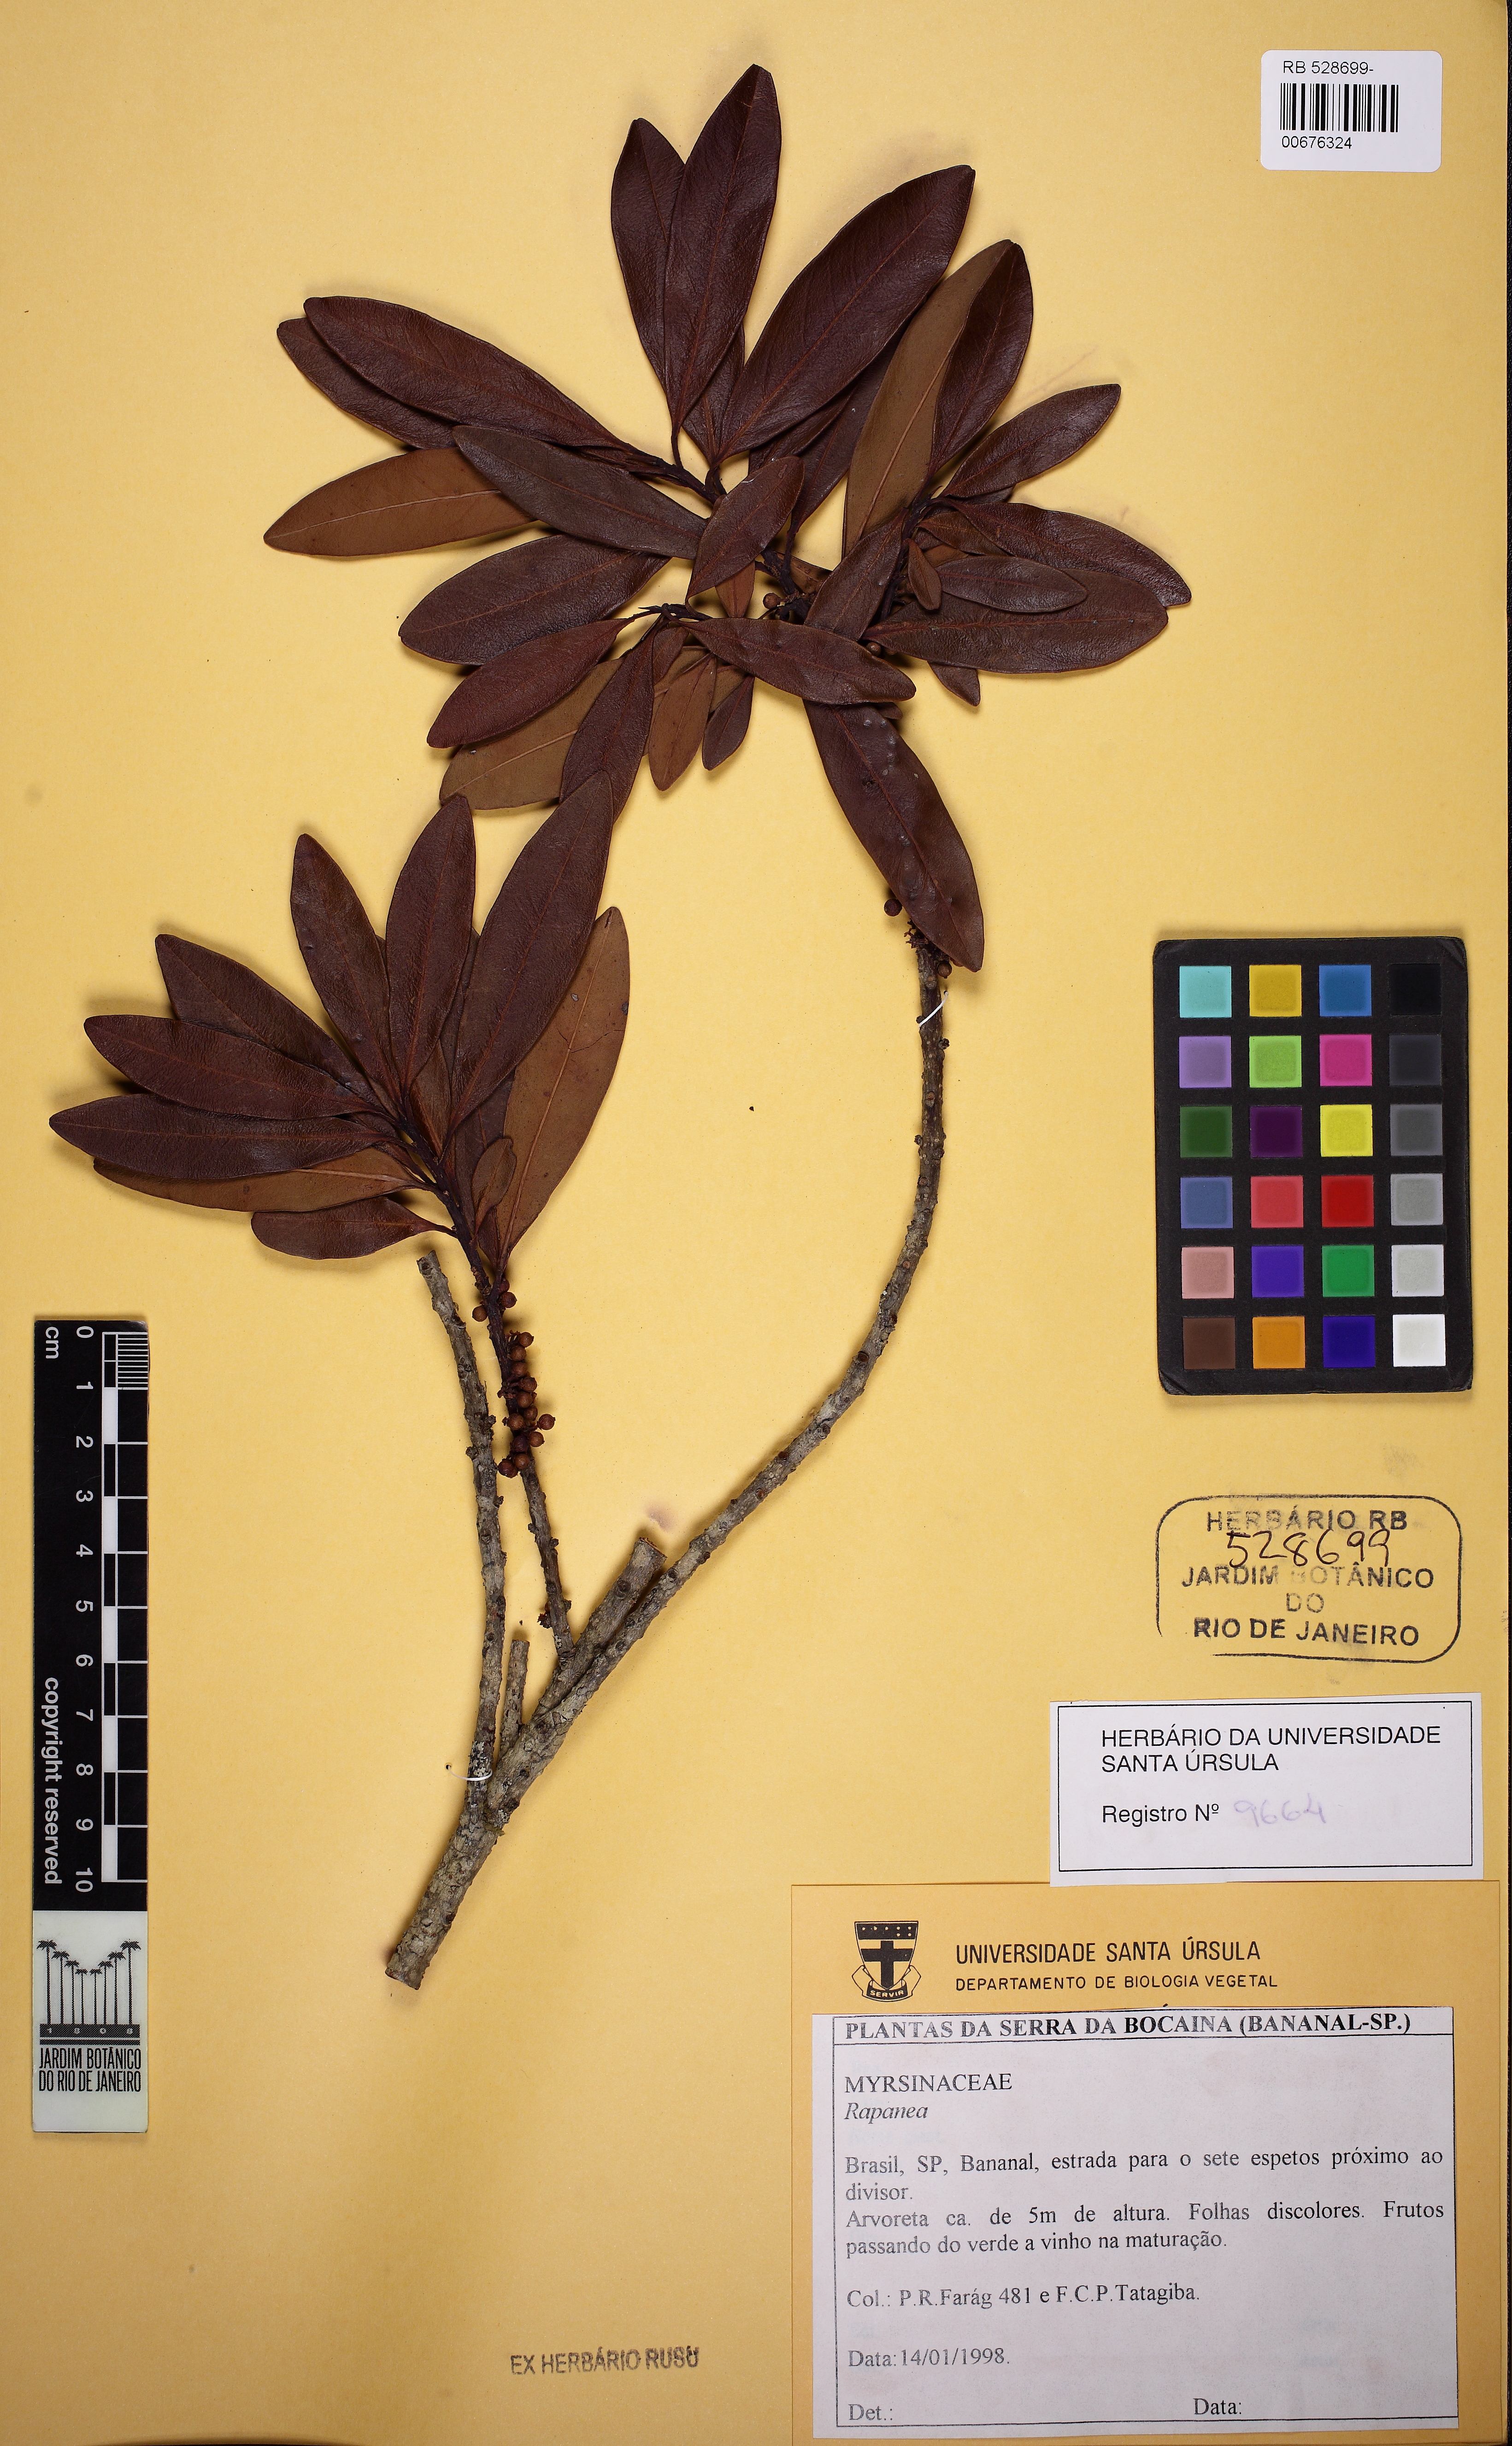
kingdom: Plantae
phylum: Tracheophyta
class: Magnoliopsida
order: Ericales
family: Primulaceae
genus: Myrsine
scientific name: Myrsine
